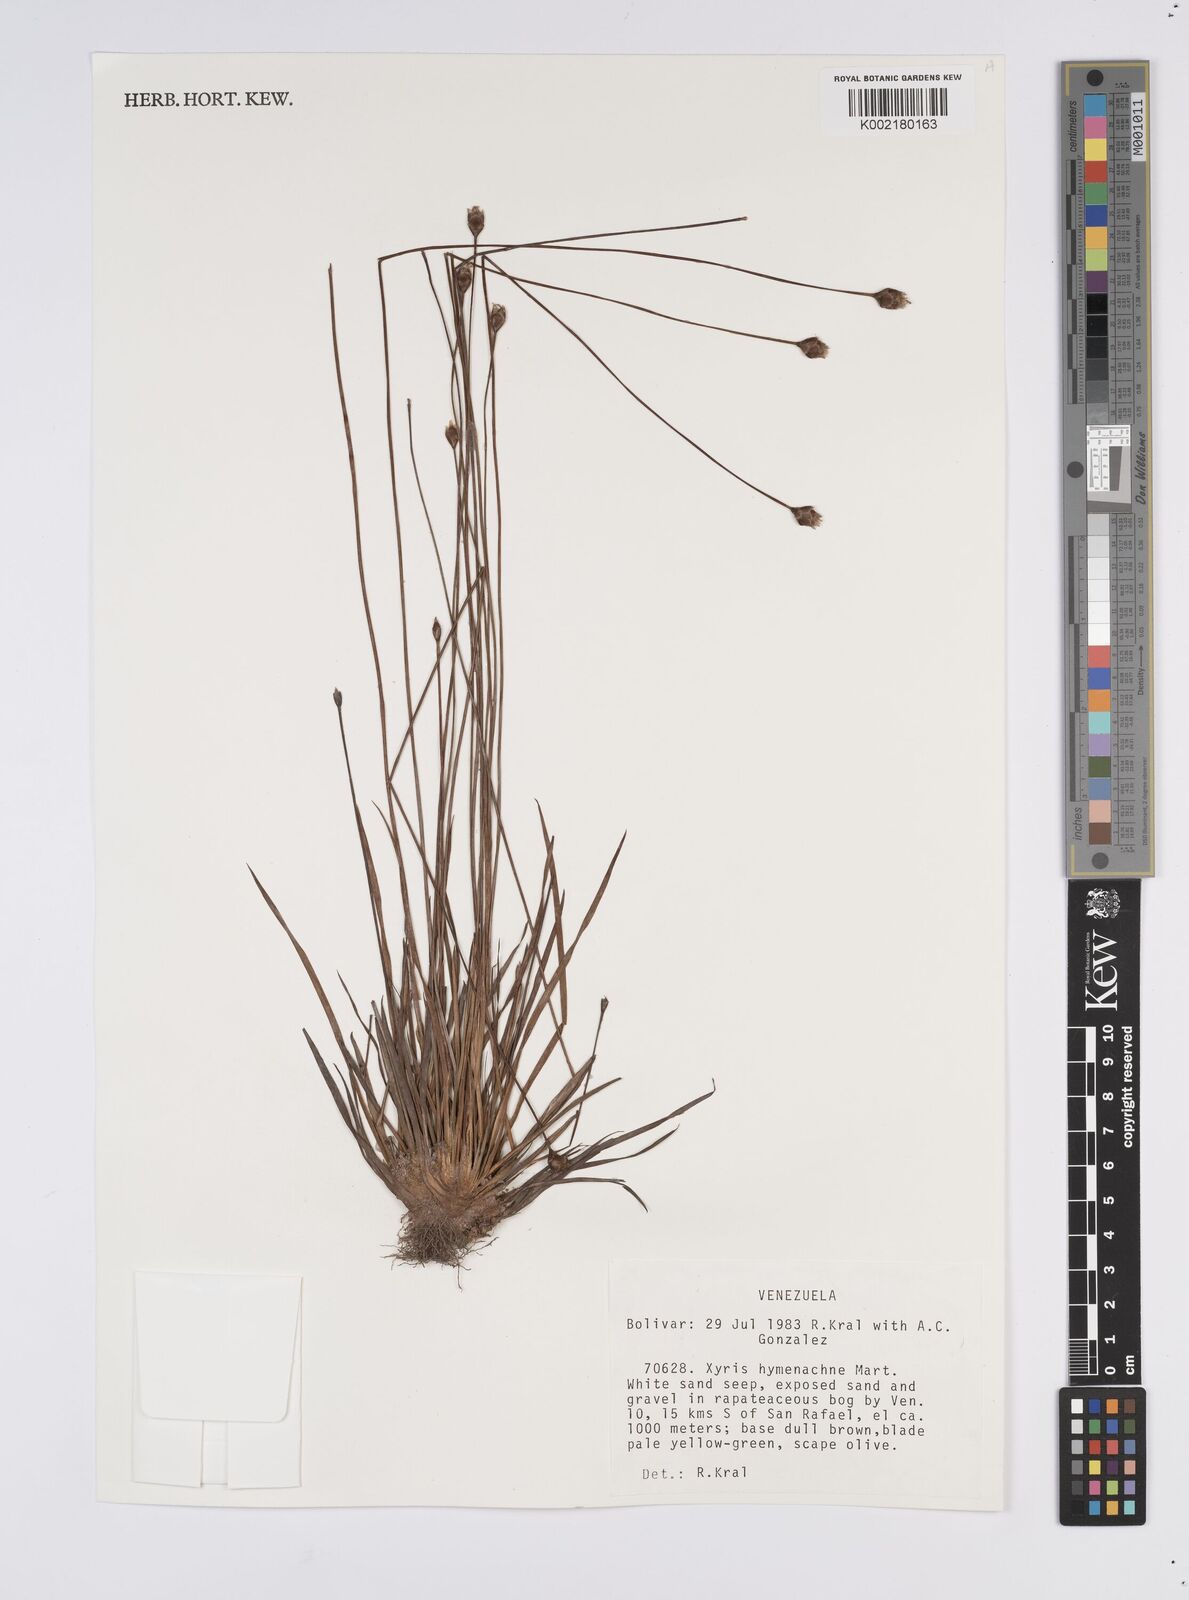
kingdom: Plantae
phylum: Tracheophyta
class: Liliopsida
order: Poales
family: Xyridaceae
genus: Xyris
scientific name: Xyris hymenachne
